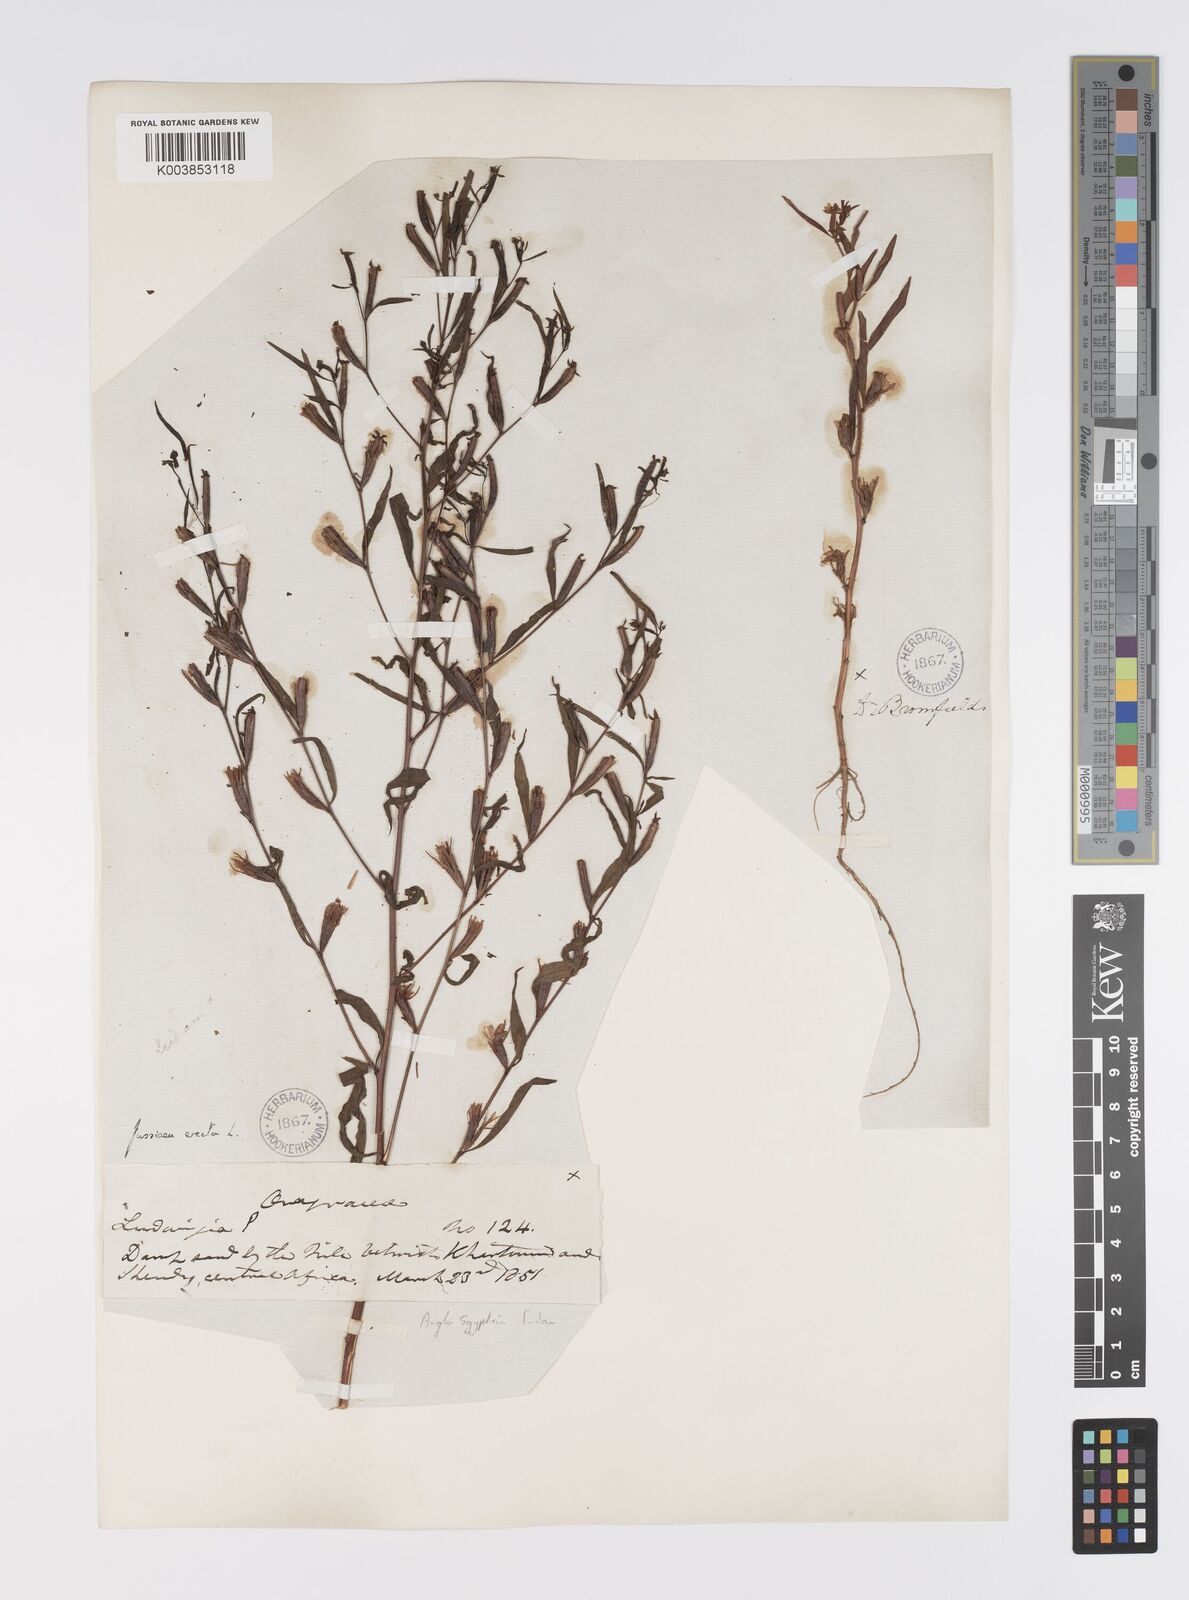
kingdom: Plantae
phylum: Tracheophyta
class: Magnoliopsida
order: Myrtales
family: Onagraceae
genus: Ludwigia
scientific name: Ludwigia erecta
